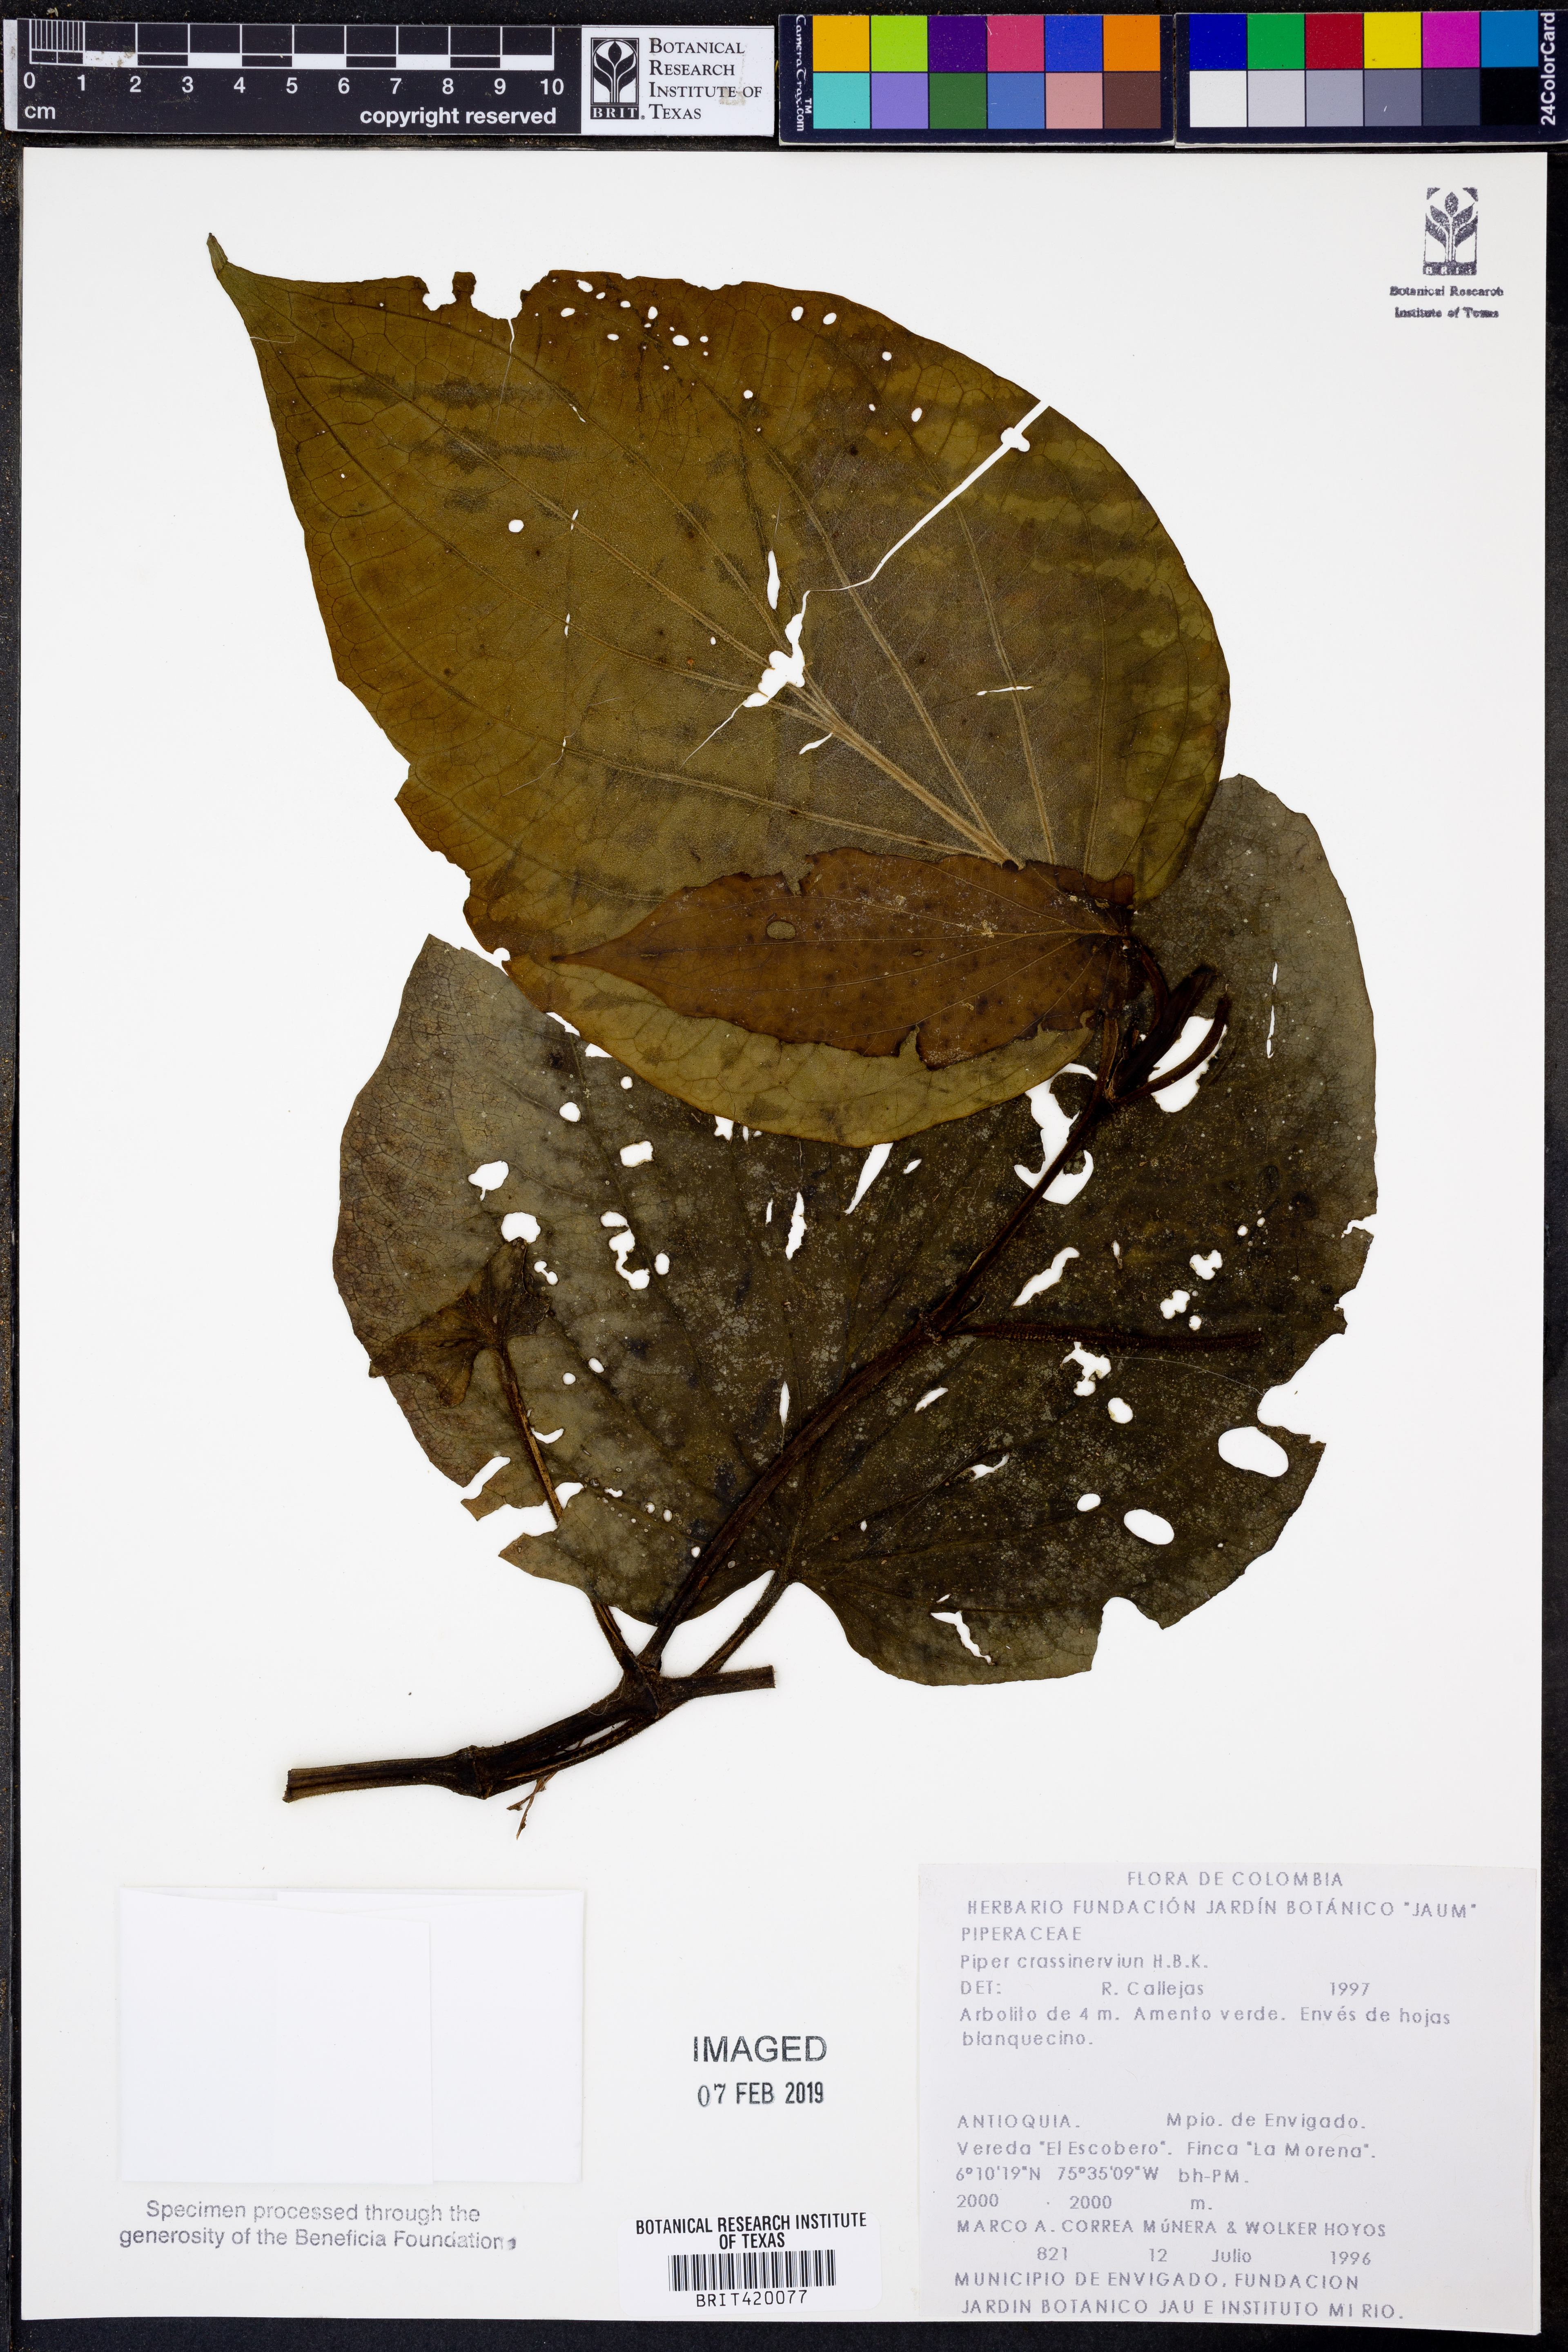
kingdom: Plantae
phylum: Tracheophyta
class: Magnoliopsida
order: Piperales
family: Piperaceae
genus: Piper
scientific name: Piper crassinervium
